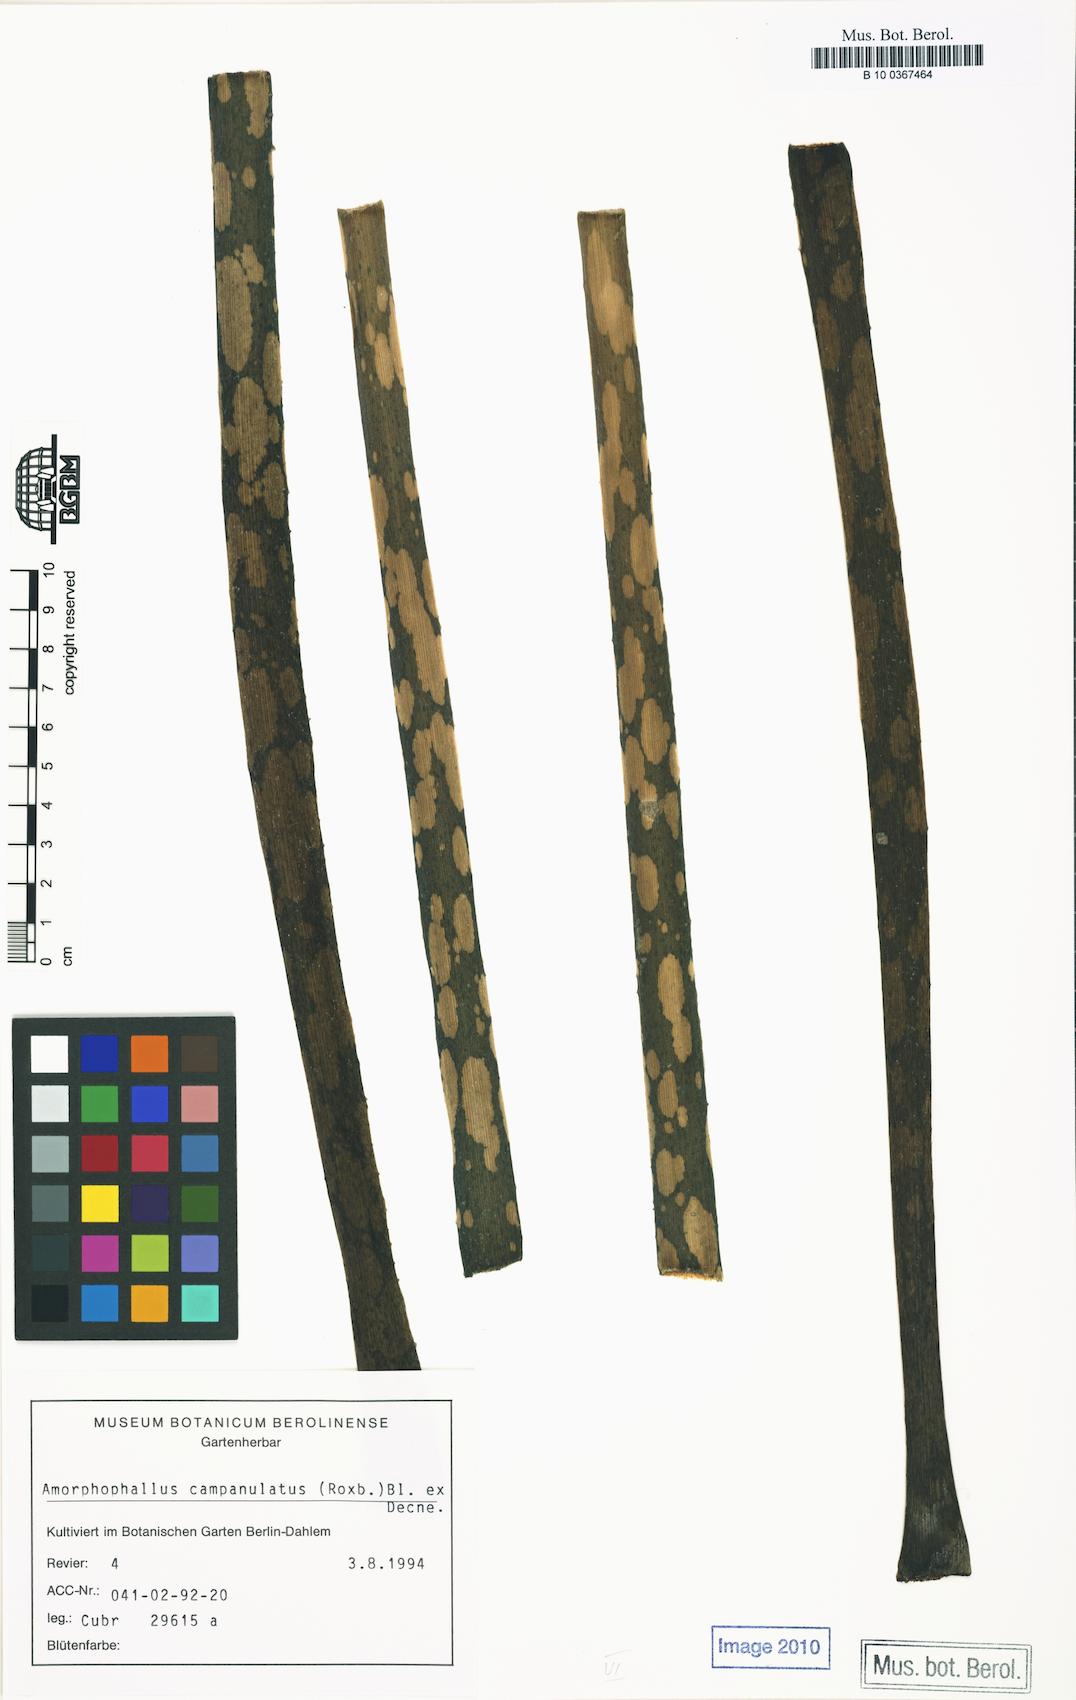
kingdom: Plantae
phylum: Tracheophyta
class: Liliopsida
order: Alismatales
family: Araceae
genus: Amorphophallus
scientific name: Amorphophallus paeoniifolius
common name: Telinga-potato
